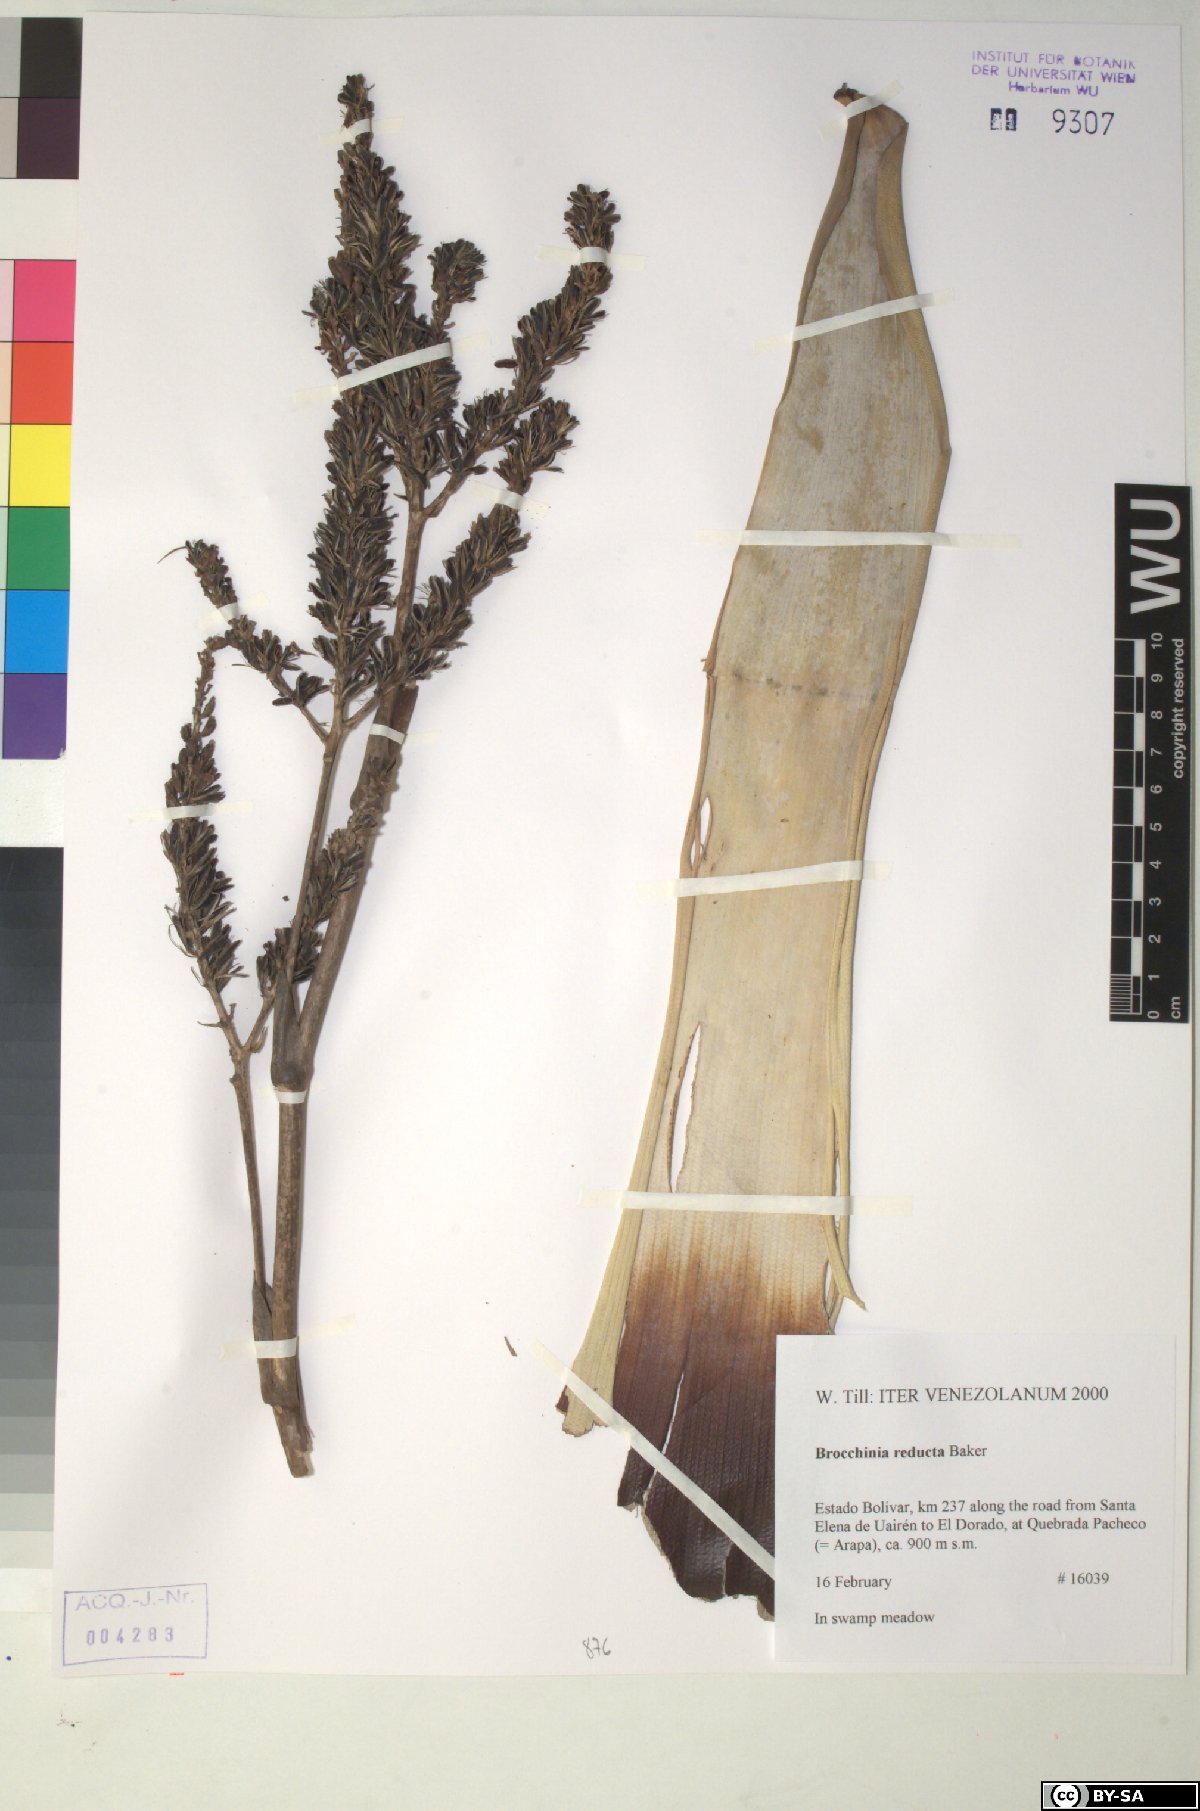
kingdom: Plantae
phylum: Tracheophyta
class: Liliopsida
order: Poales
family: Bromeliaceae
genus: Brocchinia
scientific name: Brocchinia reducta
